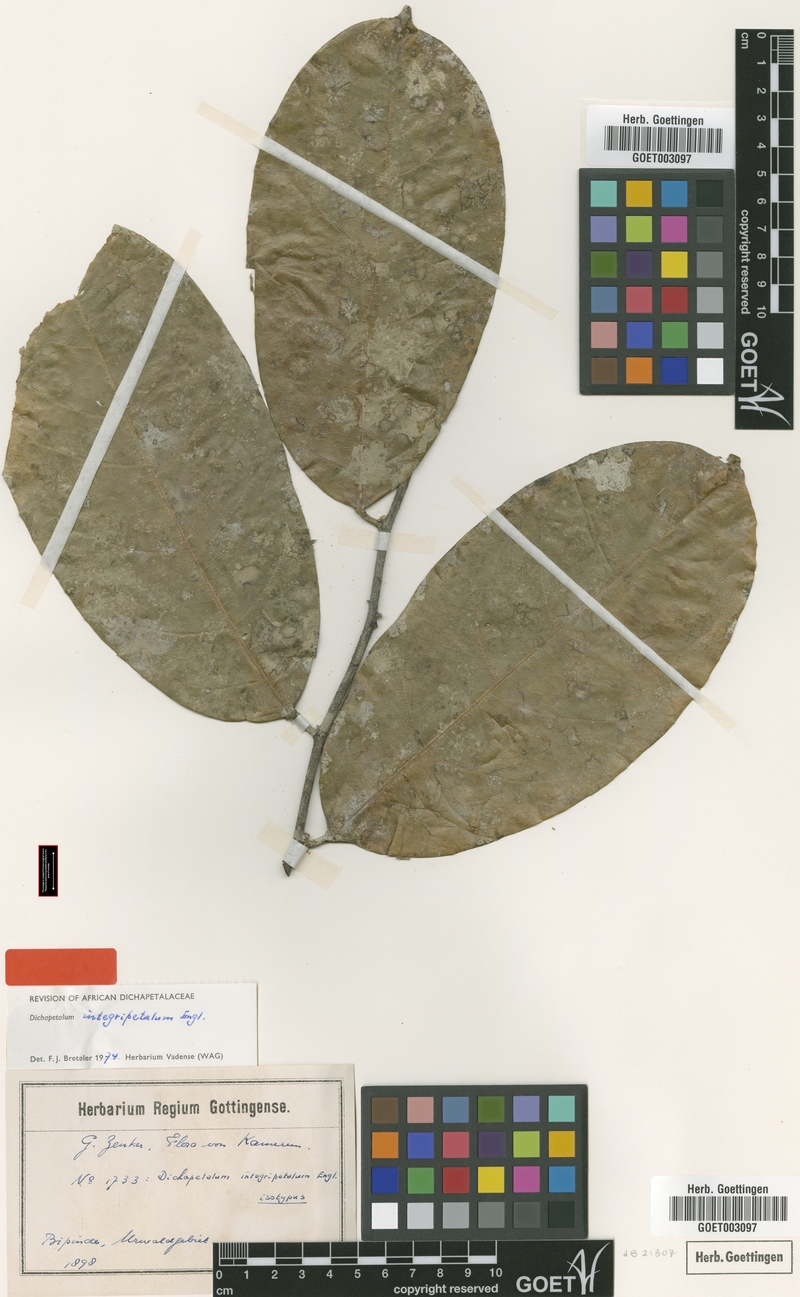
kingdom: Plantae
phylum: Tracheophyta
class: Magnoliopsida
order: Malpighiales
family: Dichapetalaceae
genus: Dichapetalum
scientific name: Dichapetalum integripetalum
